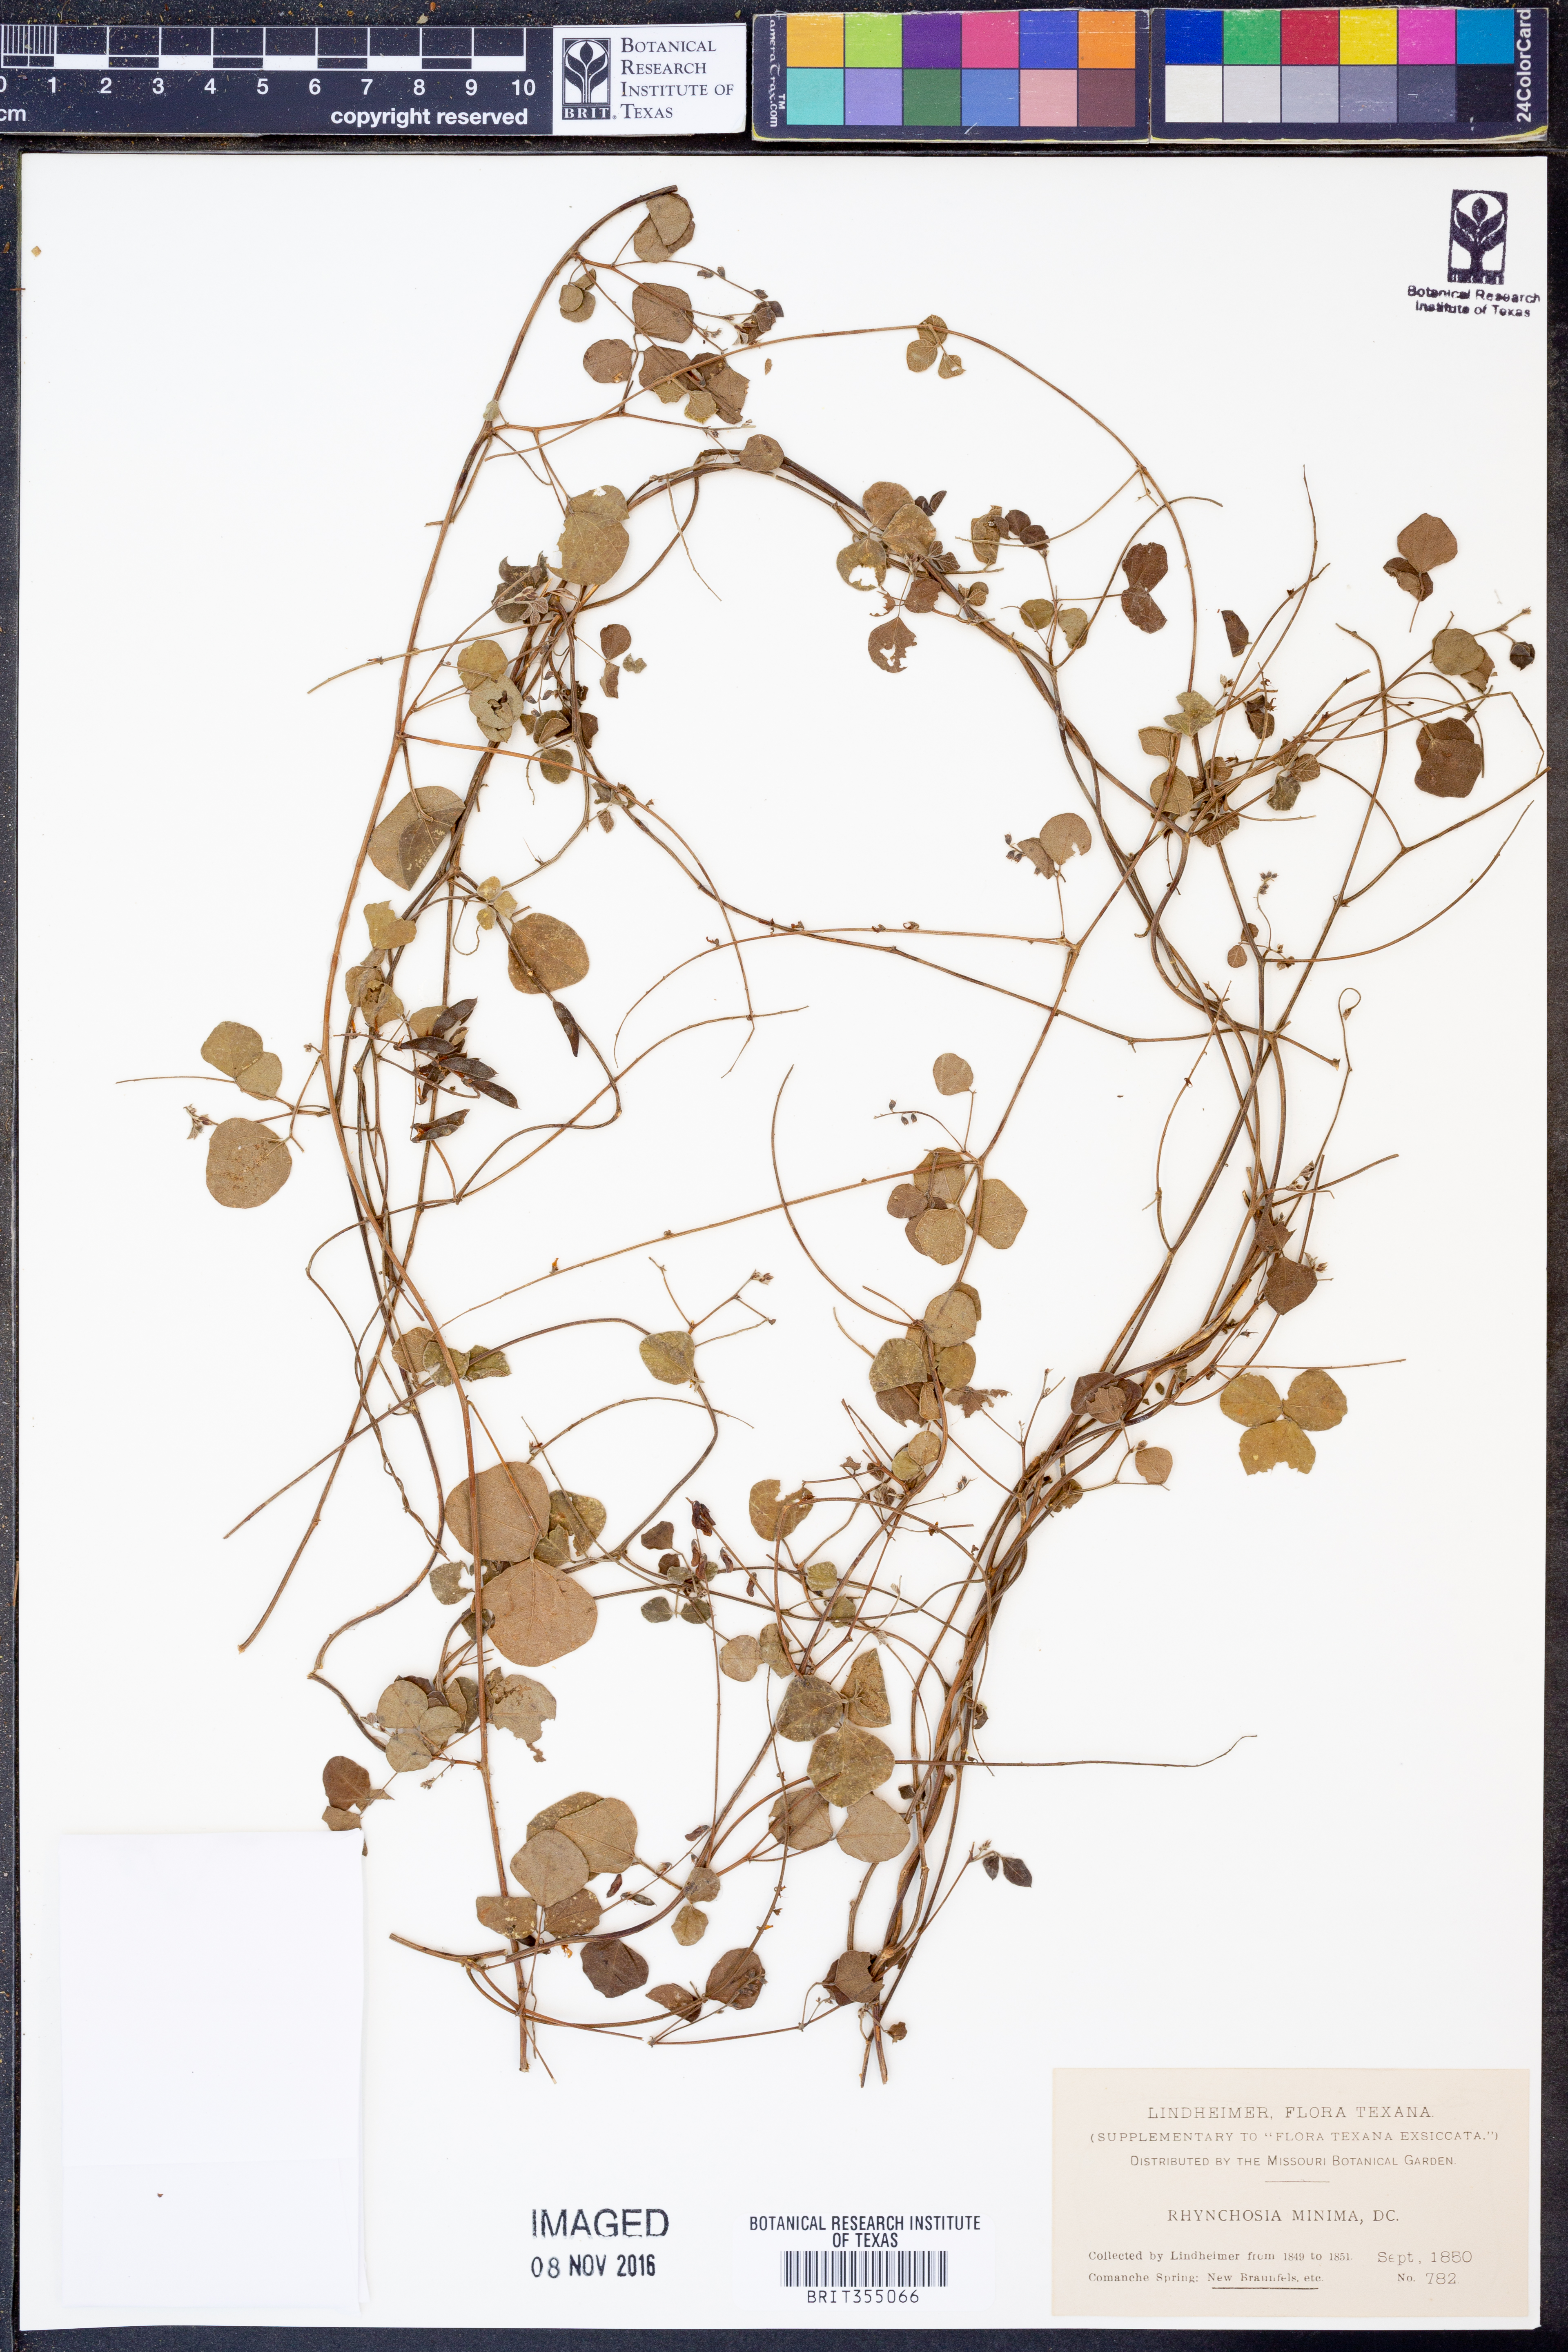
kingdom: Plantae
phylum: Tracheophyta
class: Magnoliopsida
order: Fabales
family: Fabaceae
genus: Rhynchosia
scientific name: Rhynchosia minima
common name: Least snoutbean
